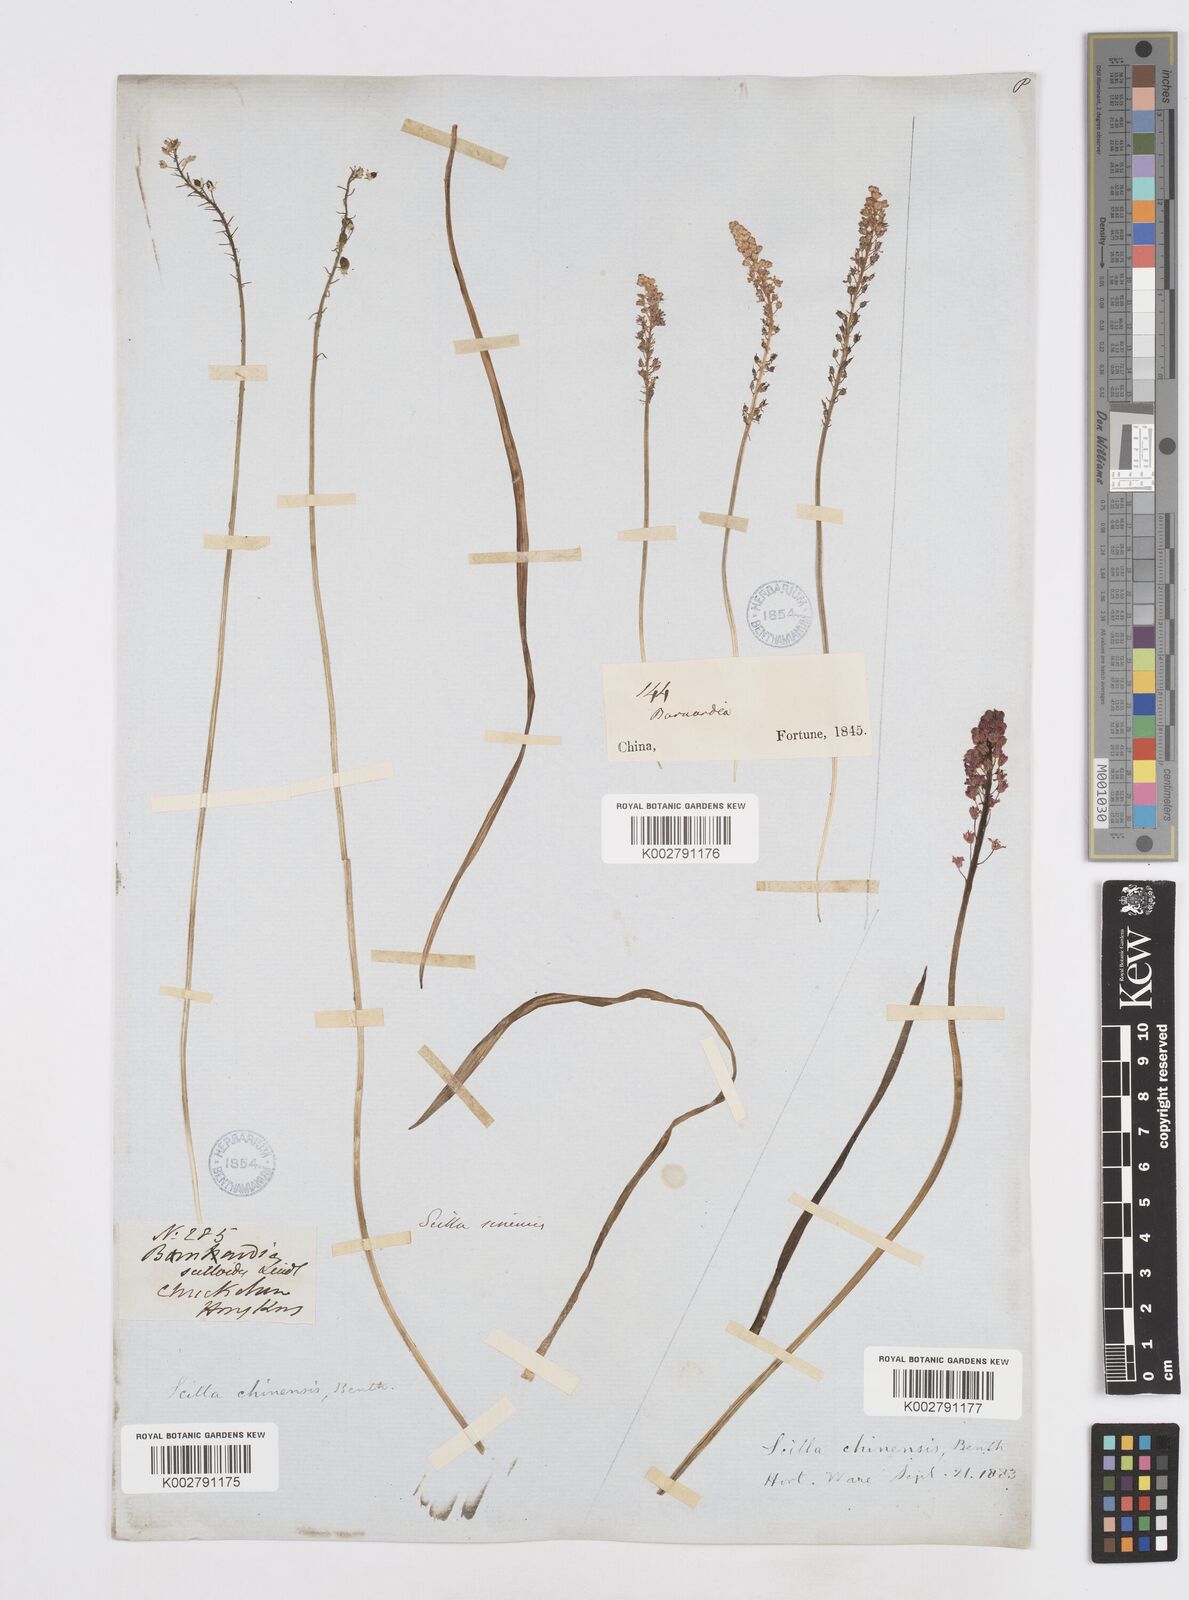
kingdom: Plantae
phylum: Tracheophyta
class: Liliopsida
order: Asparagales
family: Asparagaceae
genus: Barnardia
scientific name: Barnardia japonica
